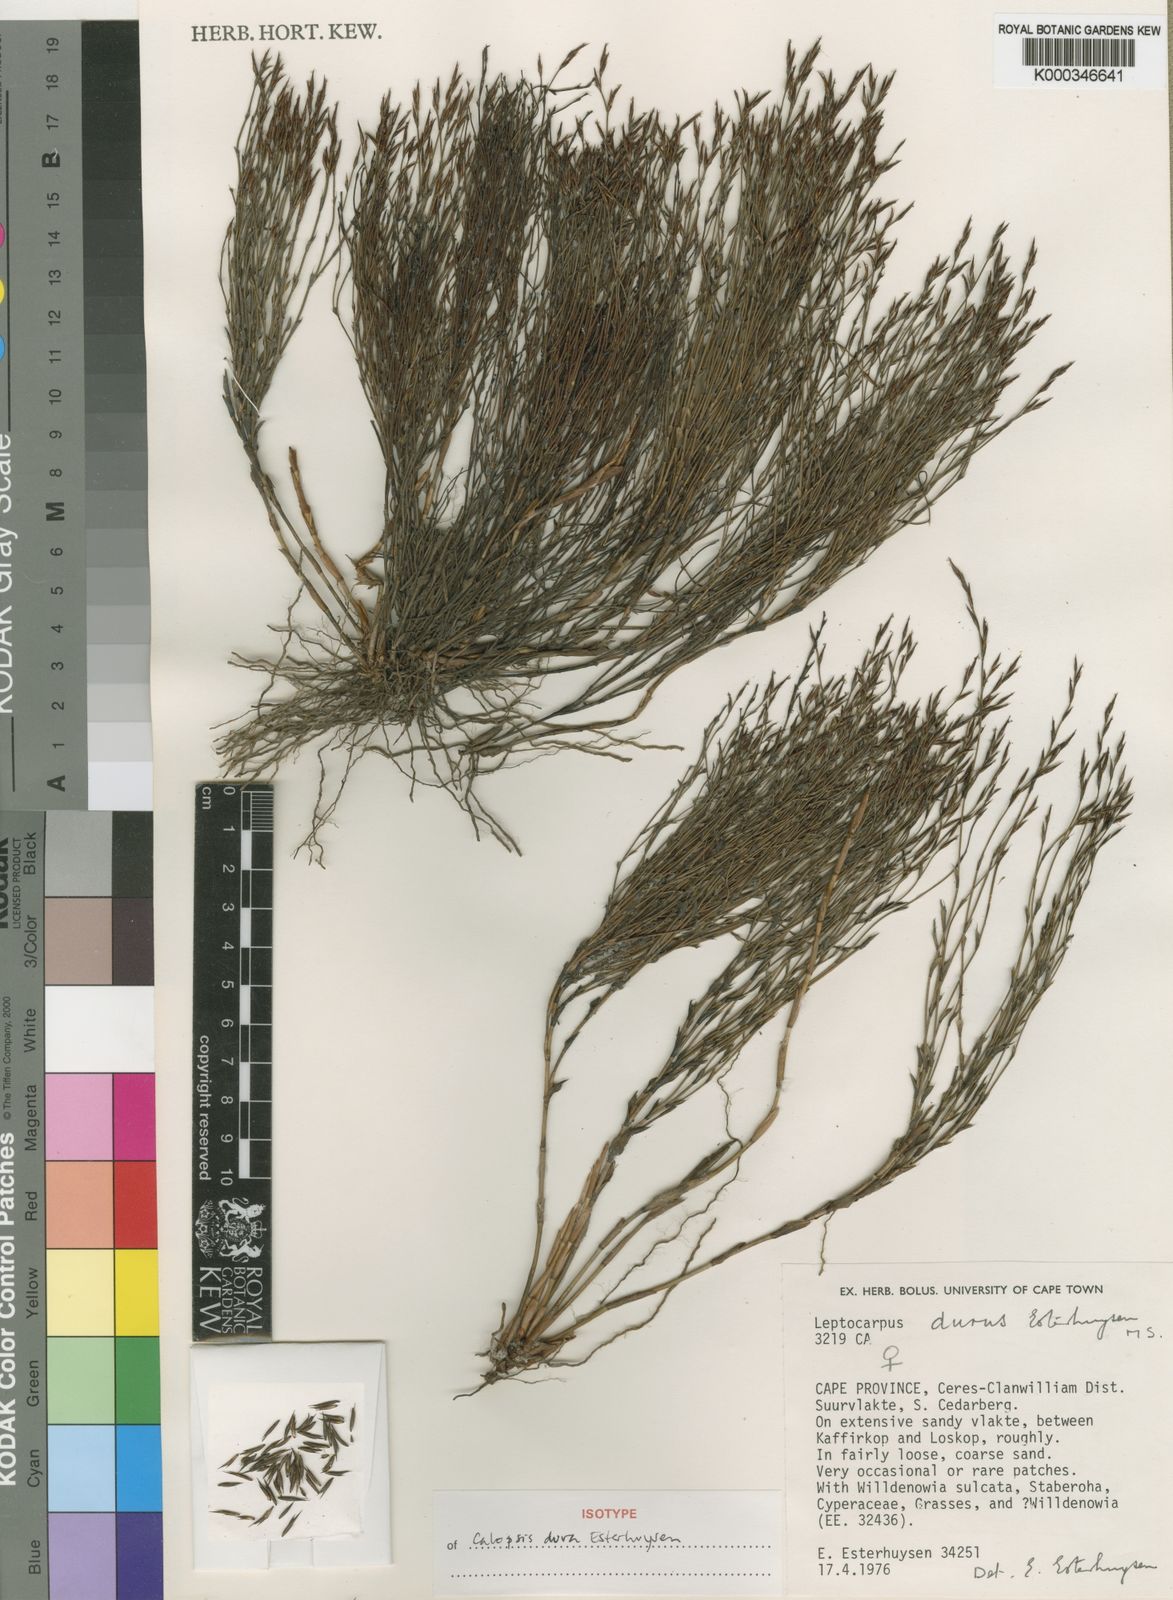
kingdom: Plantae
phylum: Tracheophyta
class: Liliopsida
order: Poales
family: Restionaceae
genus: Restio
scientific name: Restio durus
